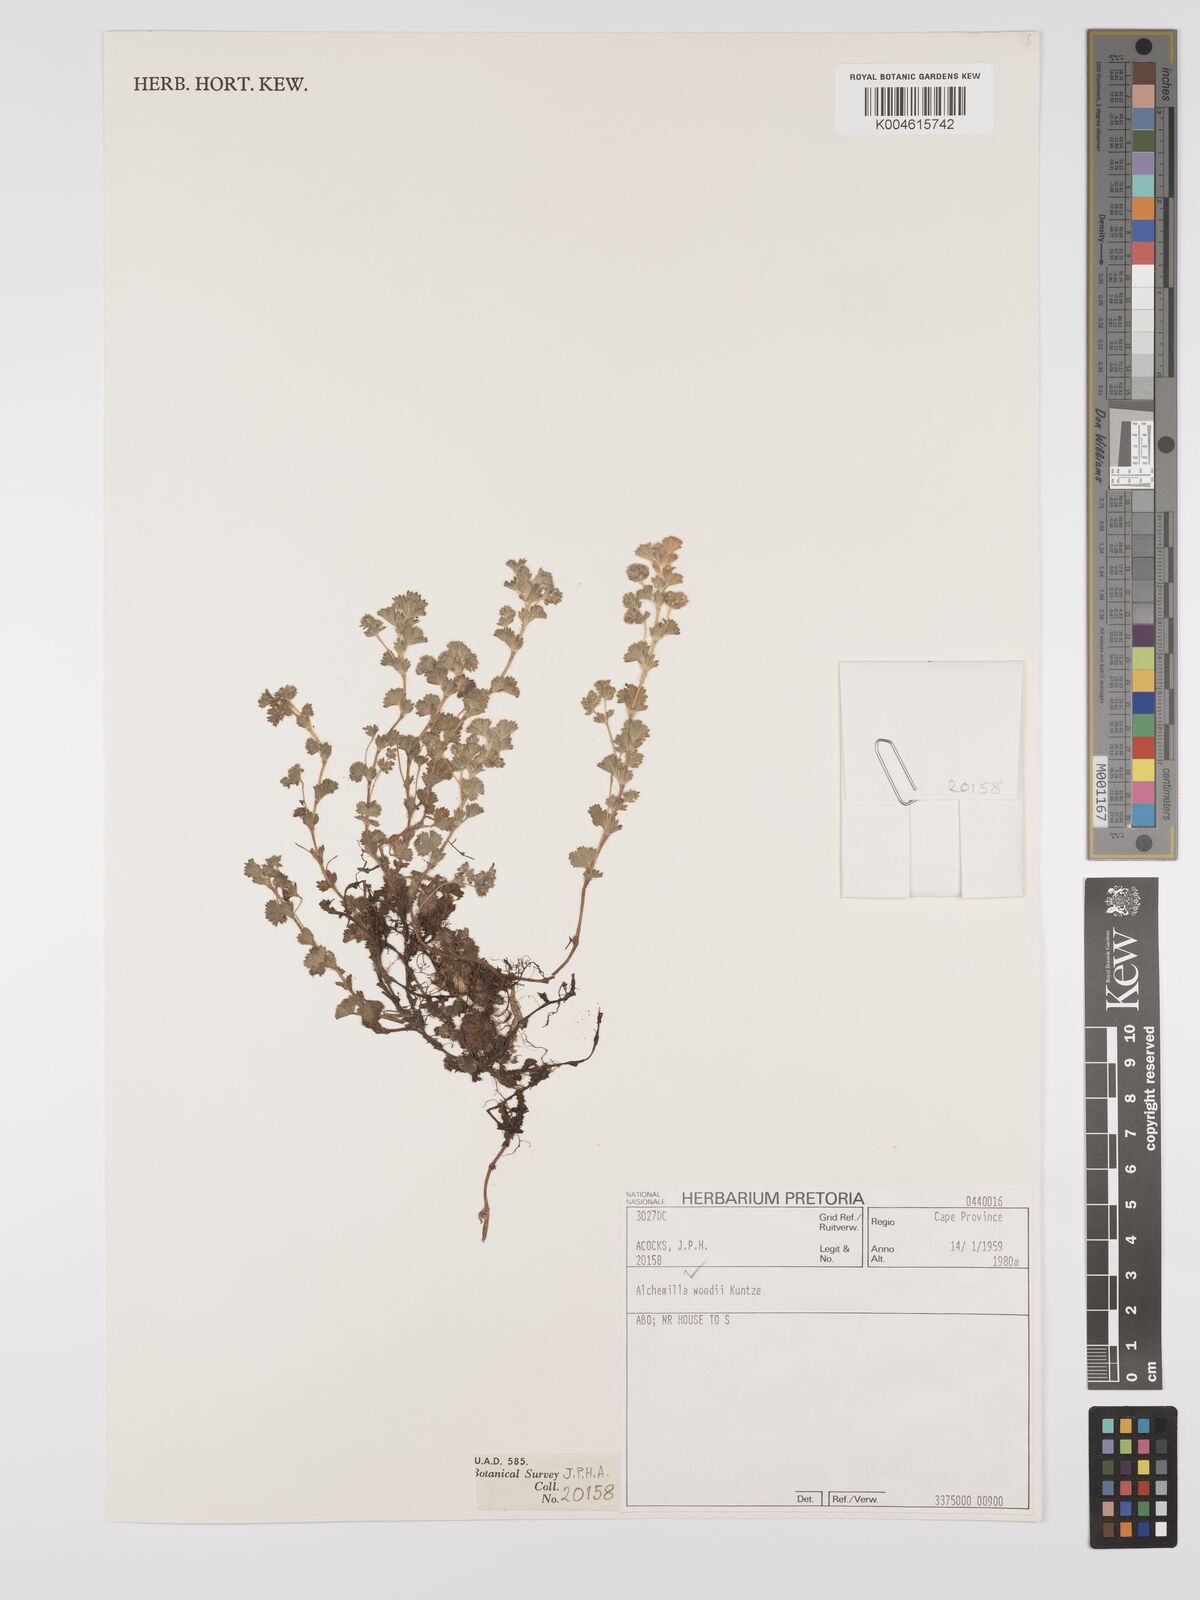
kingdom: Plantae
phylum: Tracheophyta
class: Magnoliopsida
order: Rosales
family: Rosaceae
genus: Alchemilla
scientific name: Alchemilla woodii
